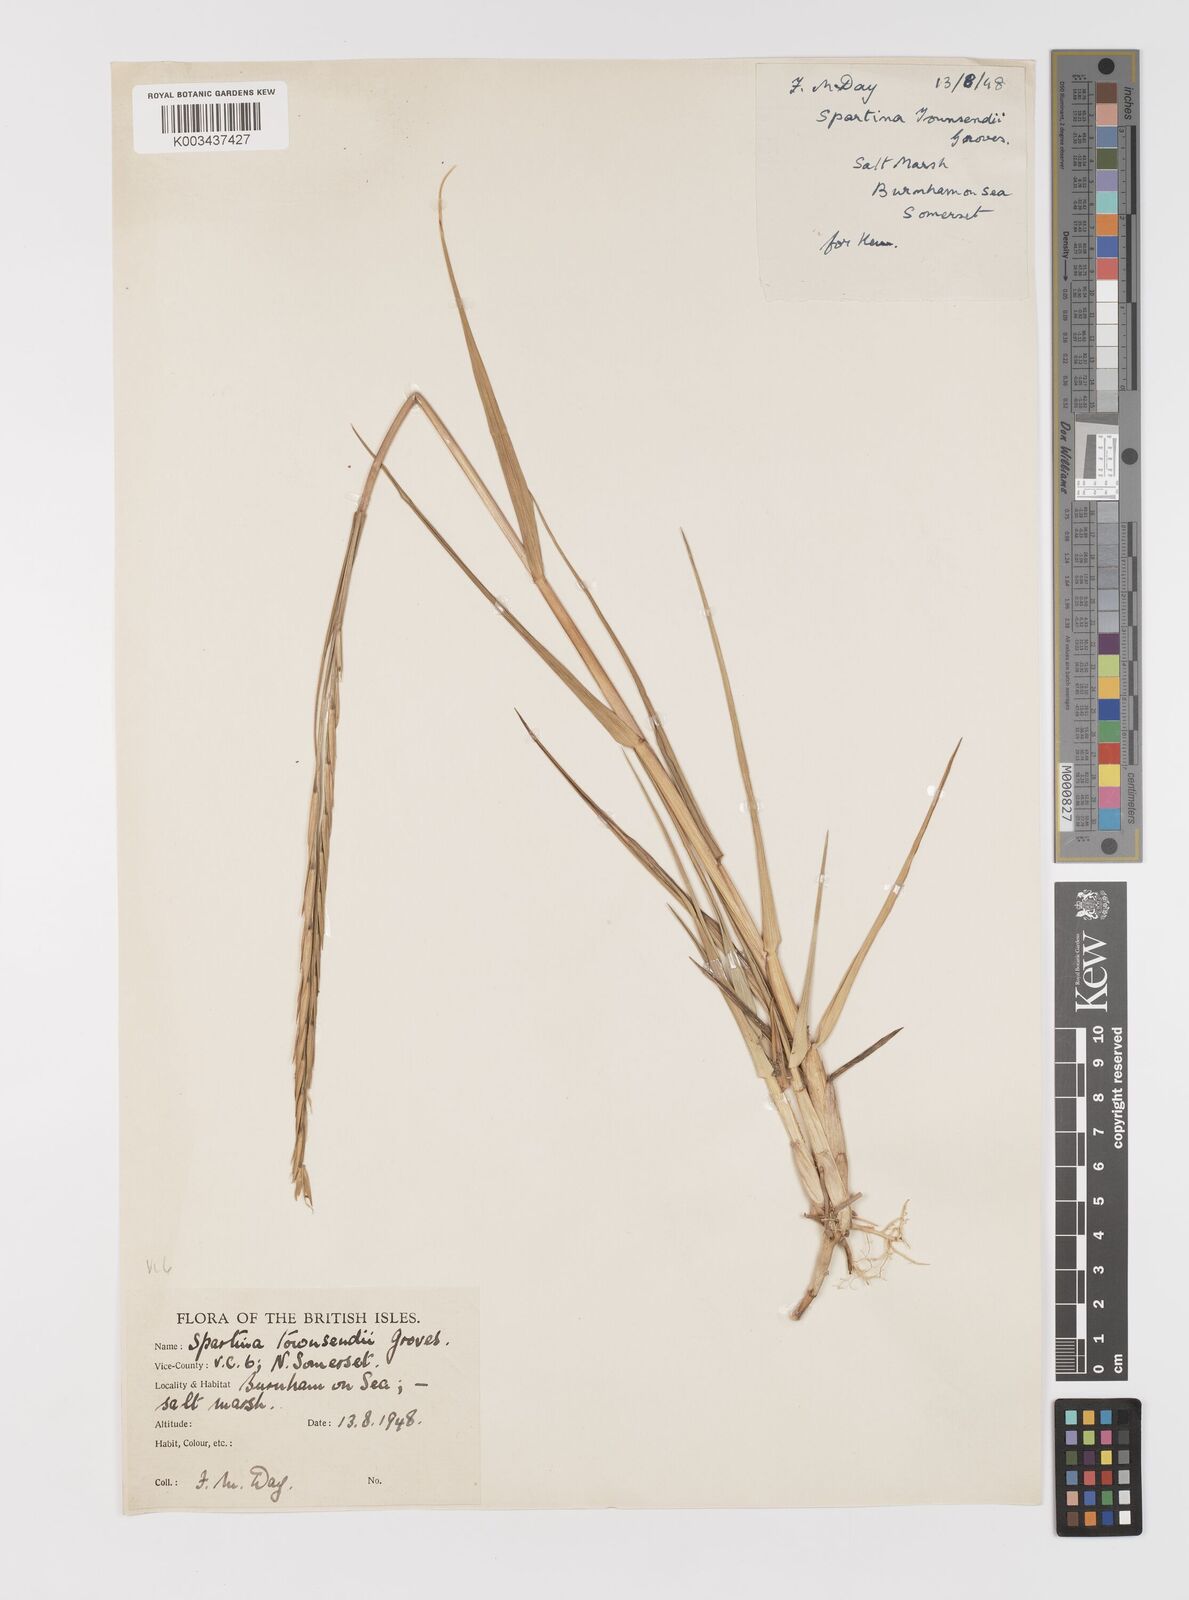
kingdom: Plantae
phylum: Tracheophyta
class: Liliopsida
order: Poales
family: Poaceae
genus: Sporobolus
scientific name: Sporobolus anglicus
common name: English cordgrass
